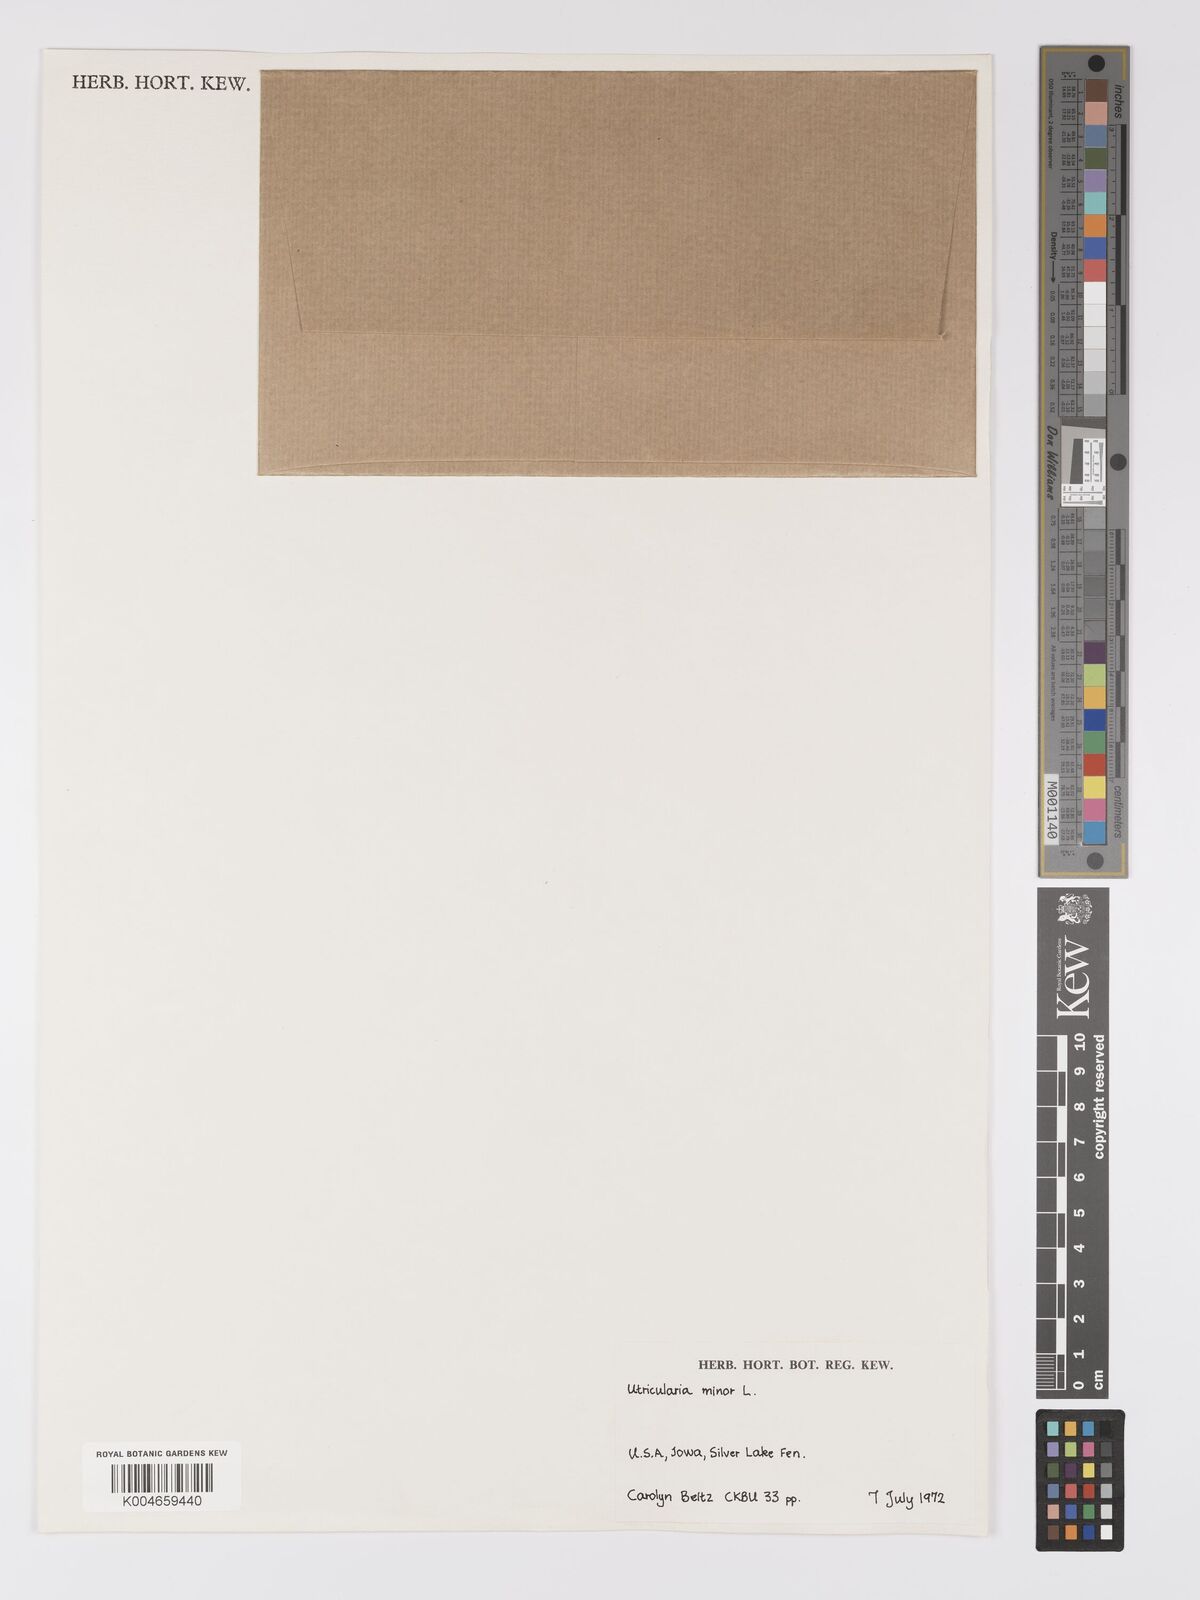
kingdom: Plantae
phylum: Tracheophyta
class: Magnoliopsida
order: Lamiales
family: Lentibulariaceae
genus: Utricularia
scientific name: Utricularia minor
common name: Lesser bladderwort
